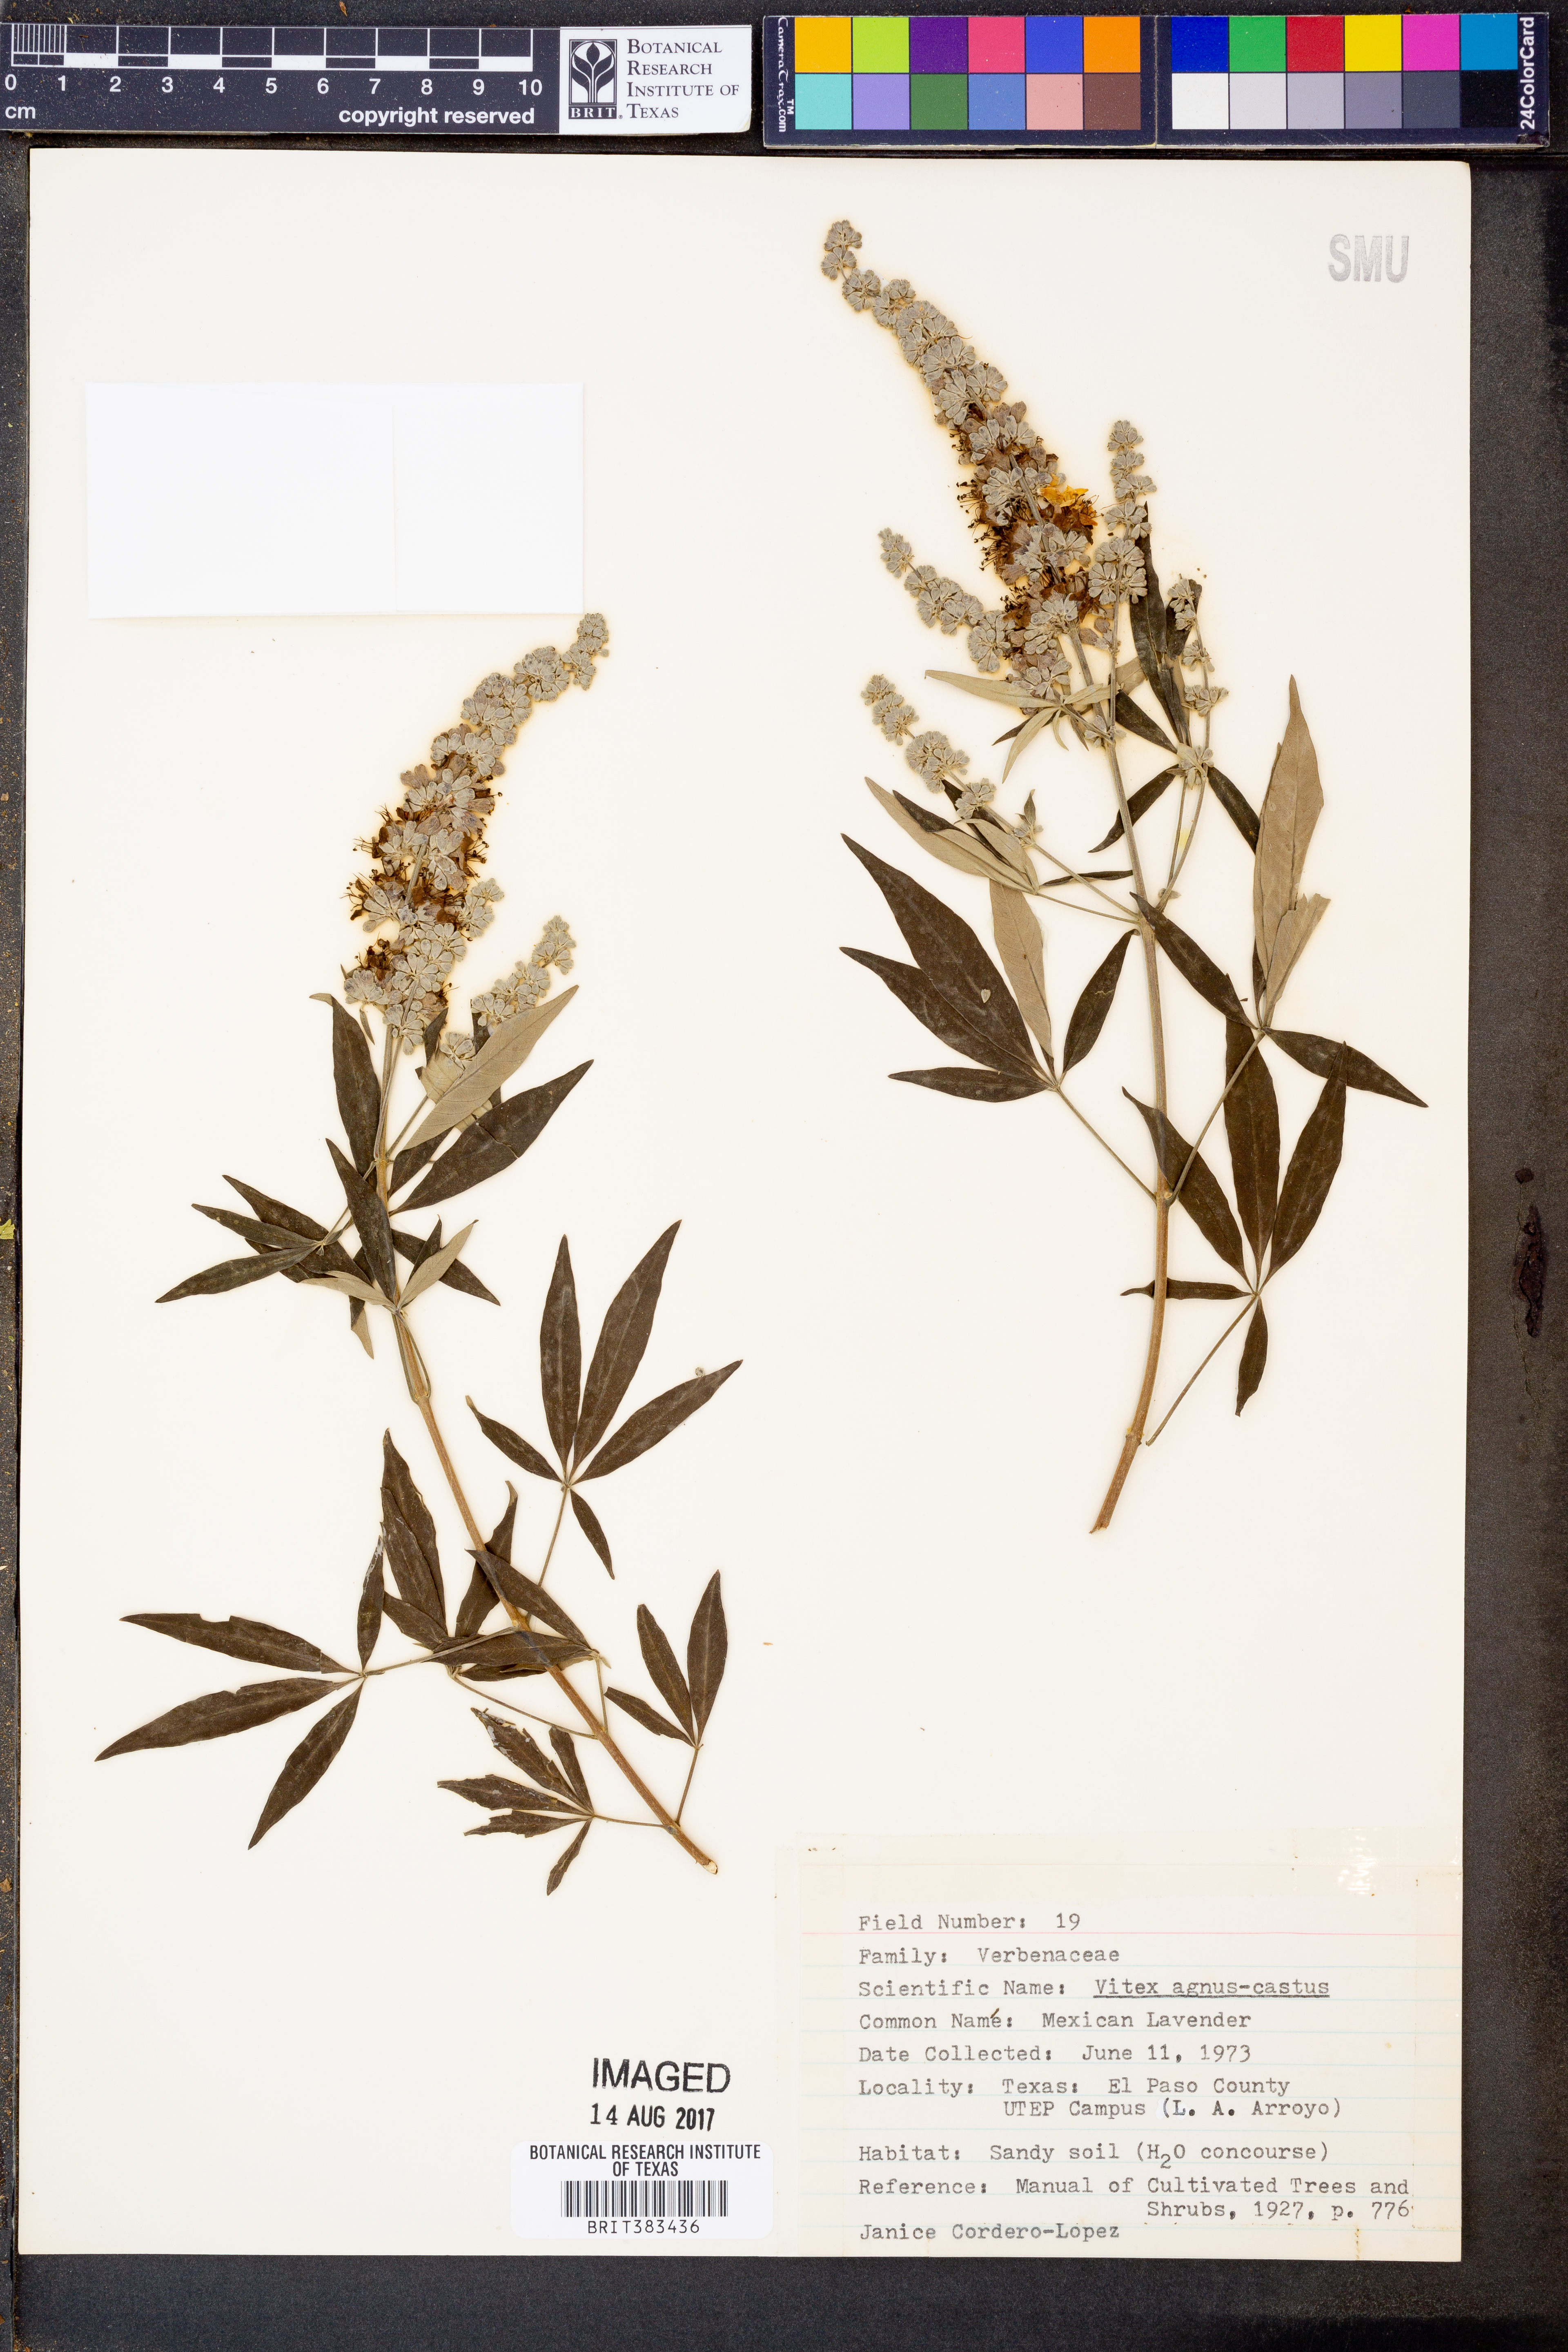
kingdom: Plantae
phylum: Tracheophyta
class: Magnoliopsida
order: Lamiales
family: Lamiaceae
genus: Vitex
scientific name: Vitex agnus-castus
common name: Chasteberry
